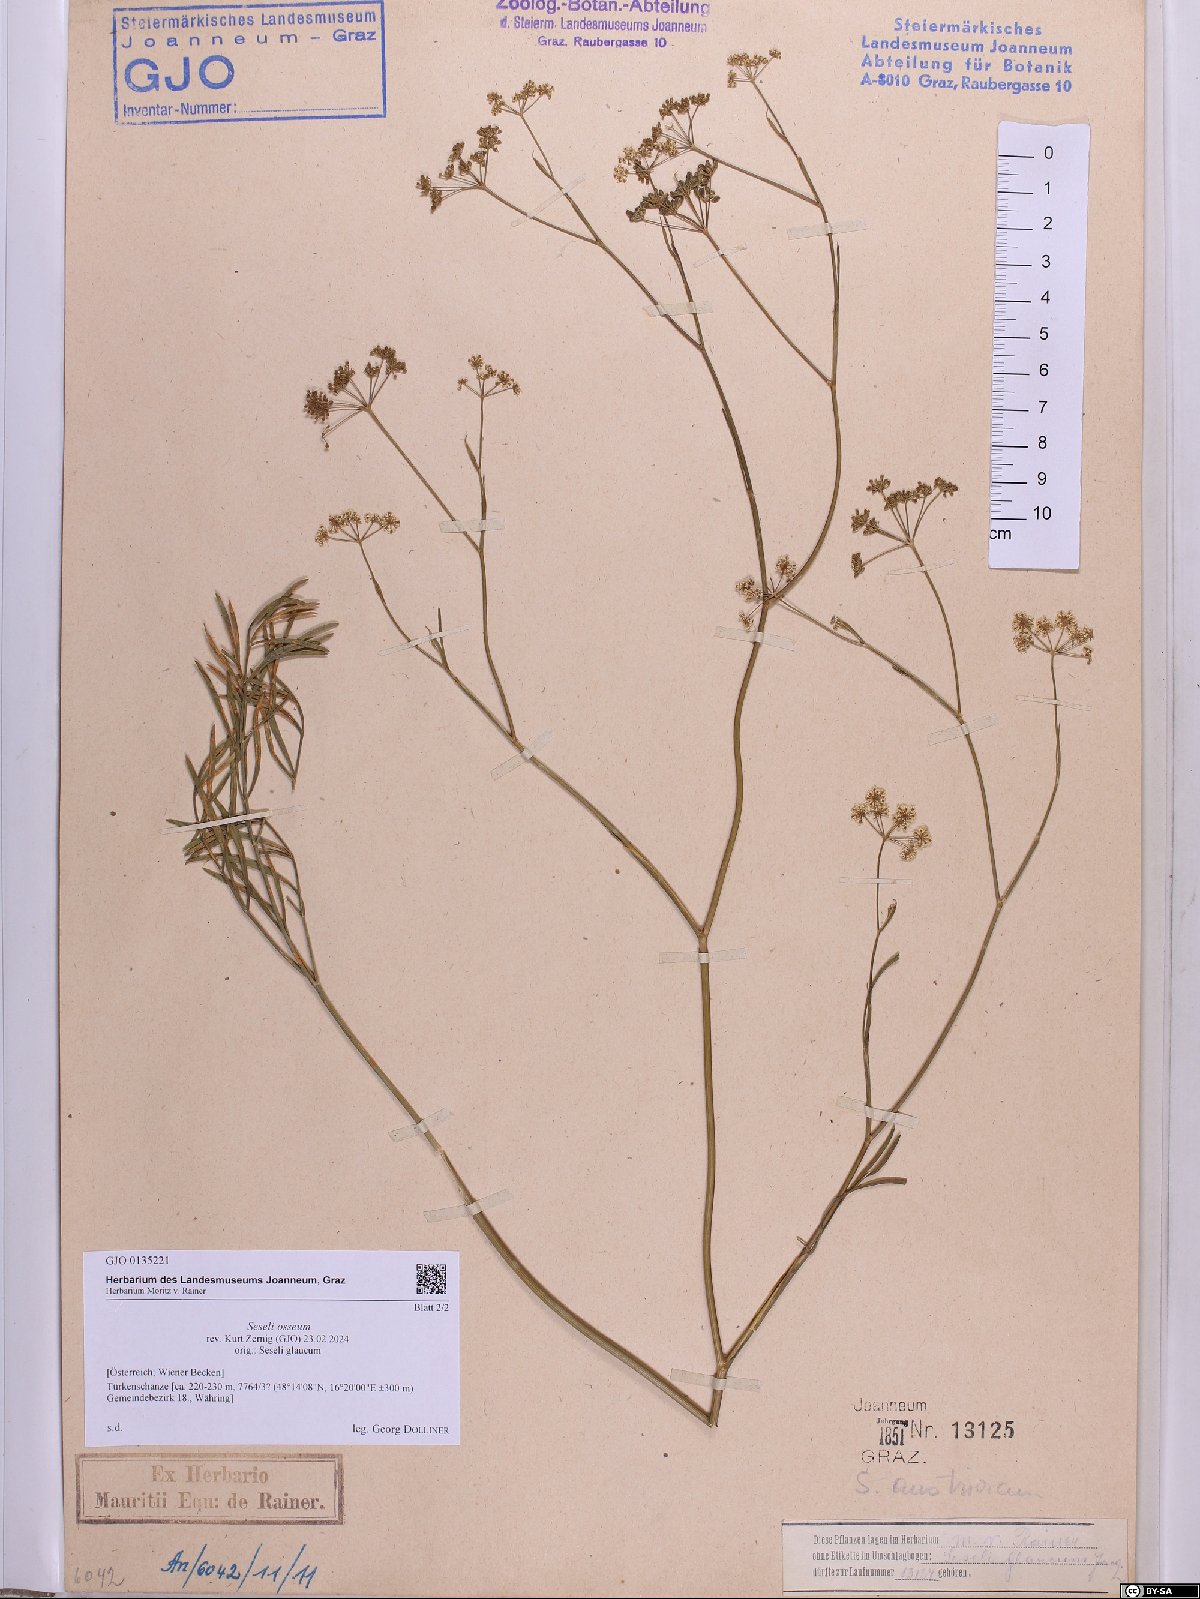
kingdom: Plantae
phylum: Tracheophyta
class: Magnoliopsida
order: Apiales
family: Apiaceae
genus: Seseli
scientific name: Seseli osseum
